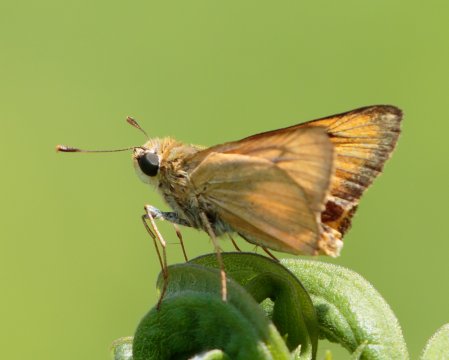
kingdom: Animalia
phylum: Arthropoda
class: Insecta
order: Lepidoptera
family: Hesperiidae
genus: Atrytone
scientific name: Atrytone delaware
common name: Delaware Skipper
